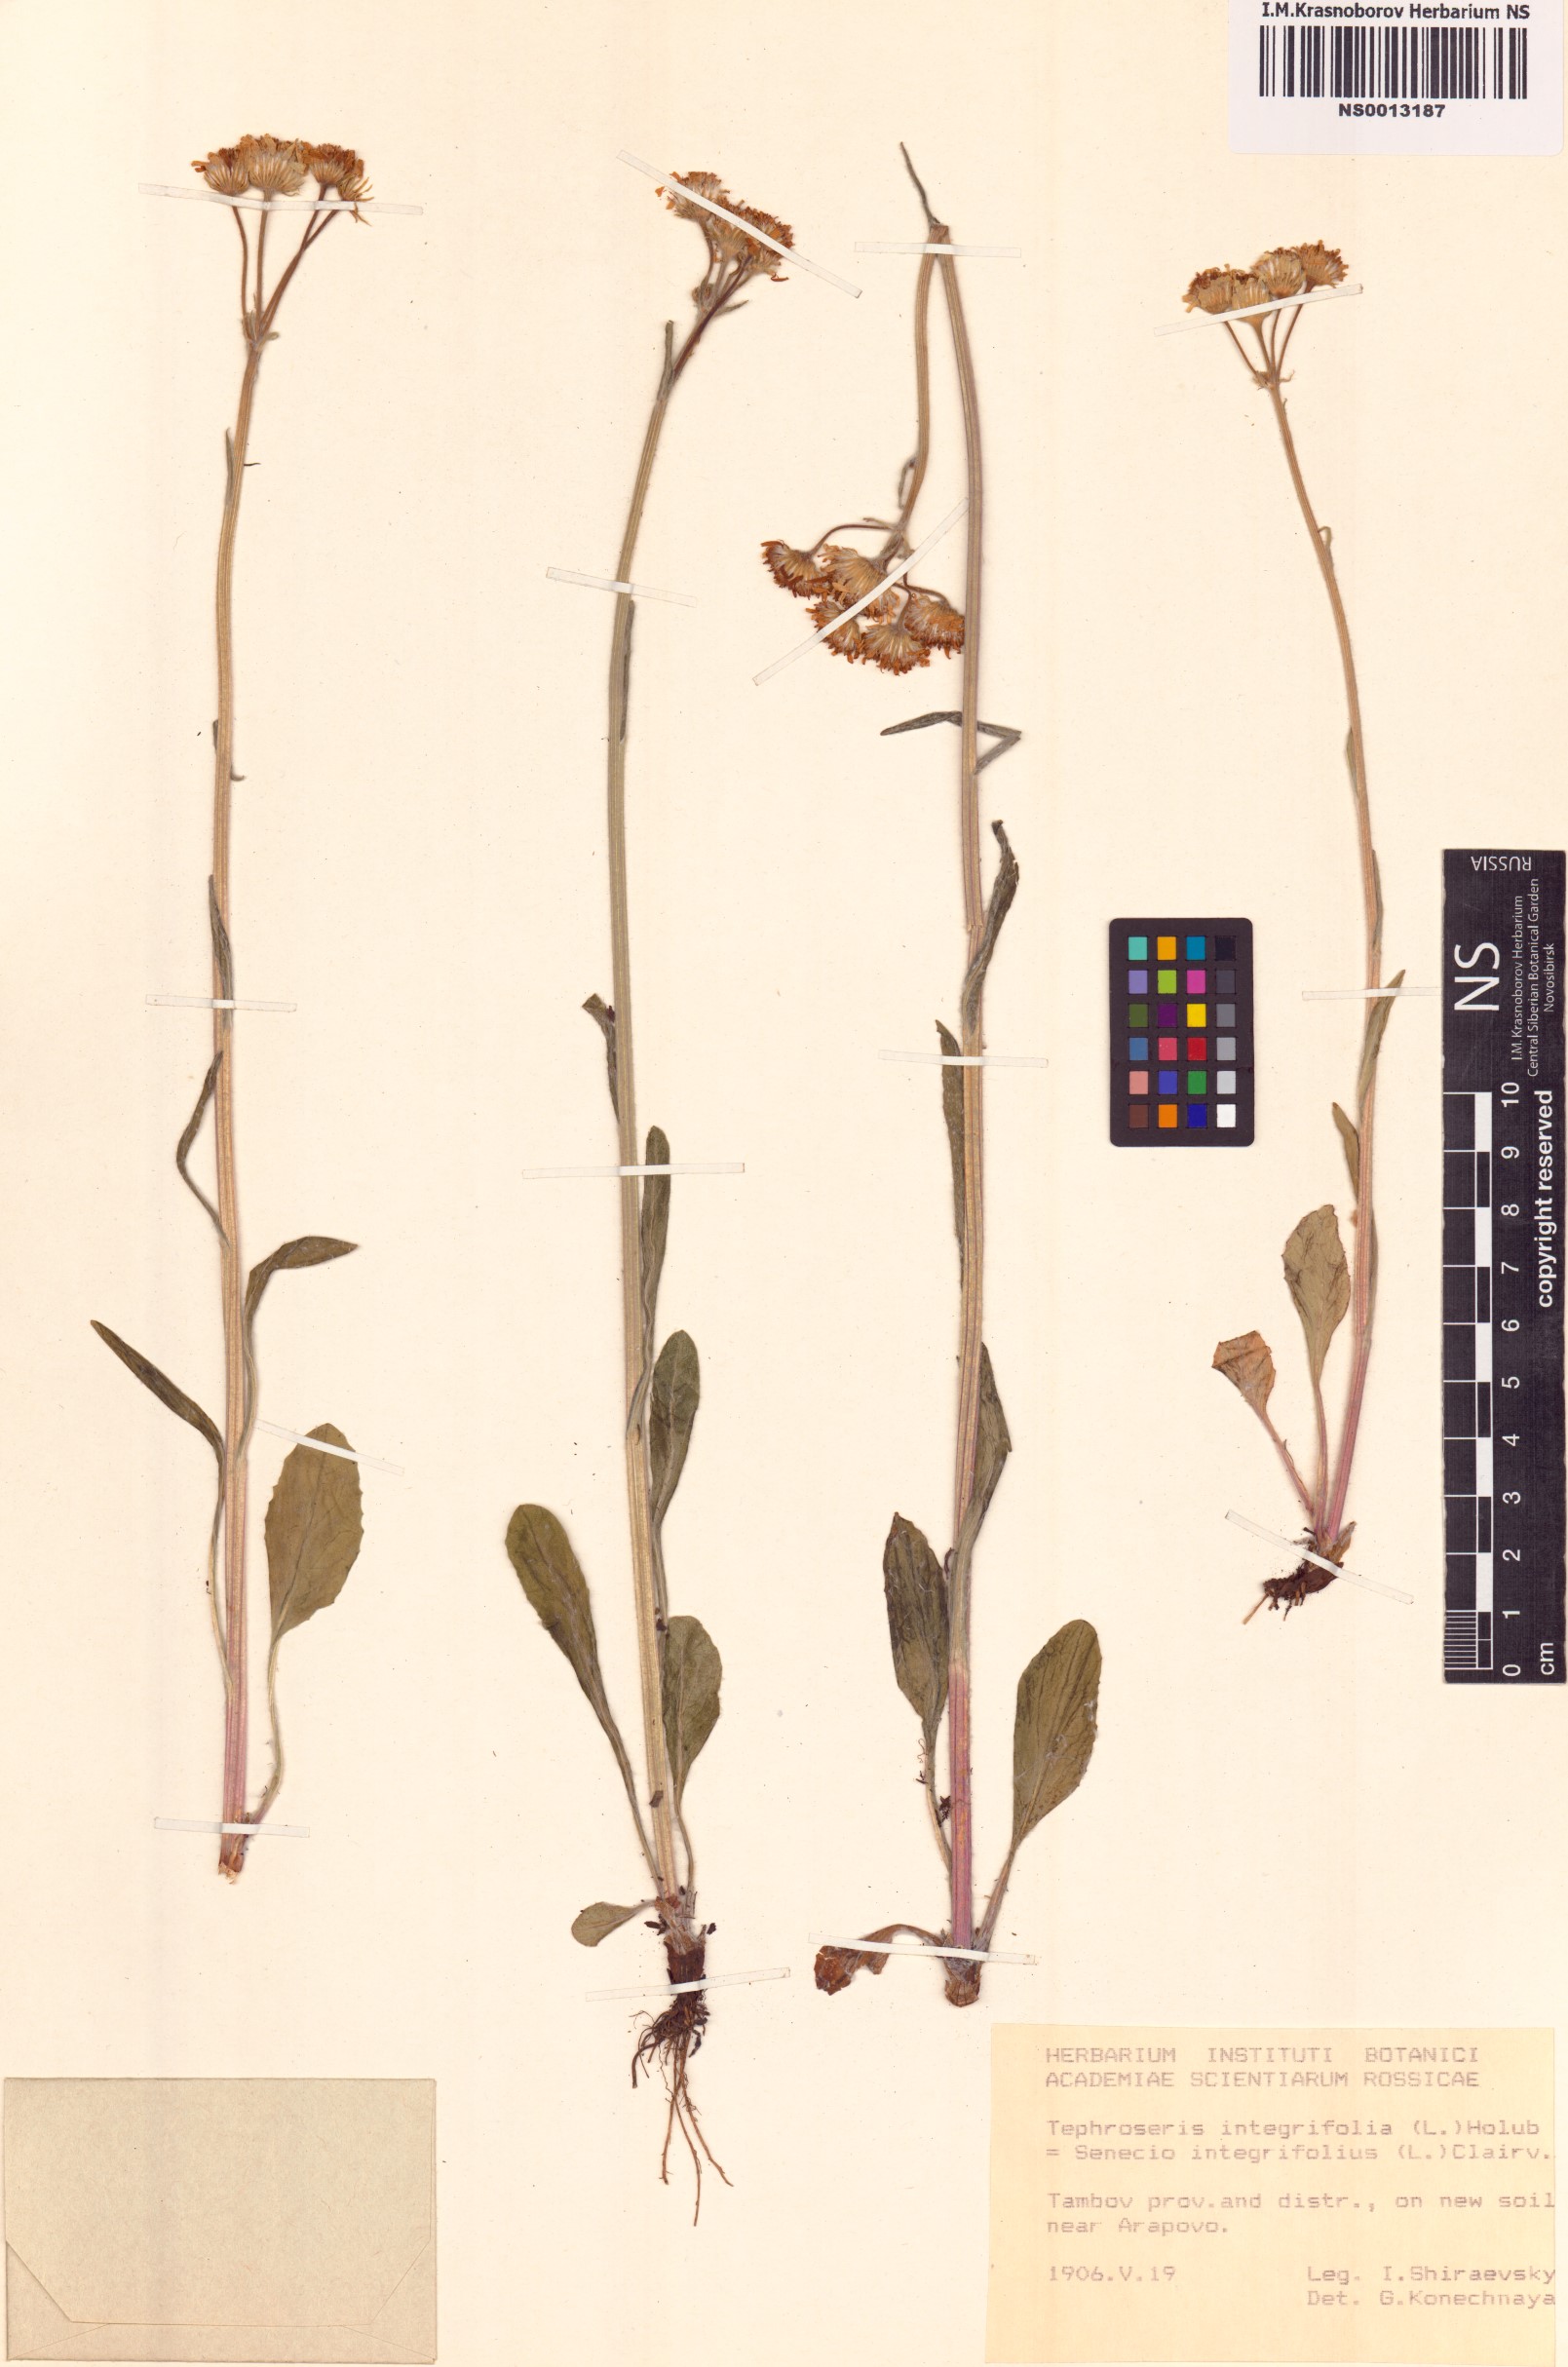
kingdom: Plantae
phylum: Tracheophyta
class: Magnoliopsida
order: Asterales
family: Asteraceae
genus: Tephroseris
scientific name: Tephroseris integrifolia
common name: Field fleawort
